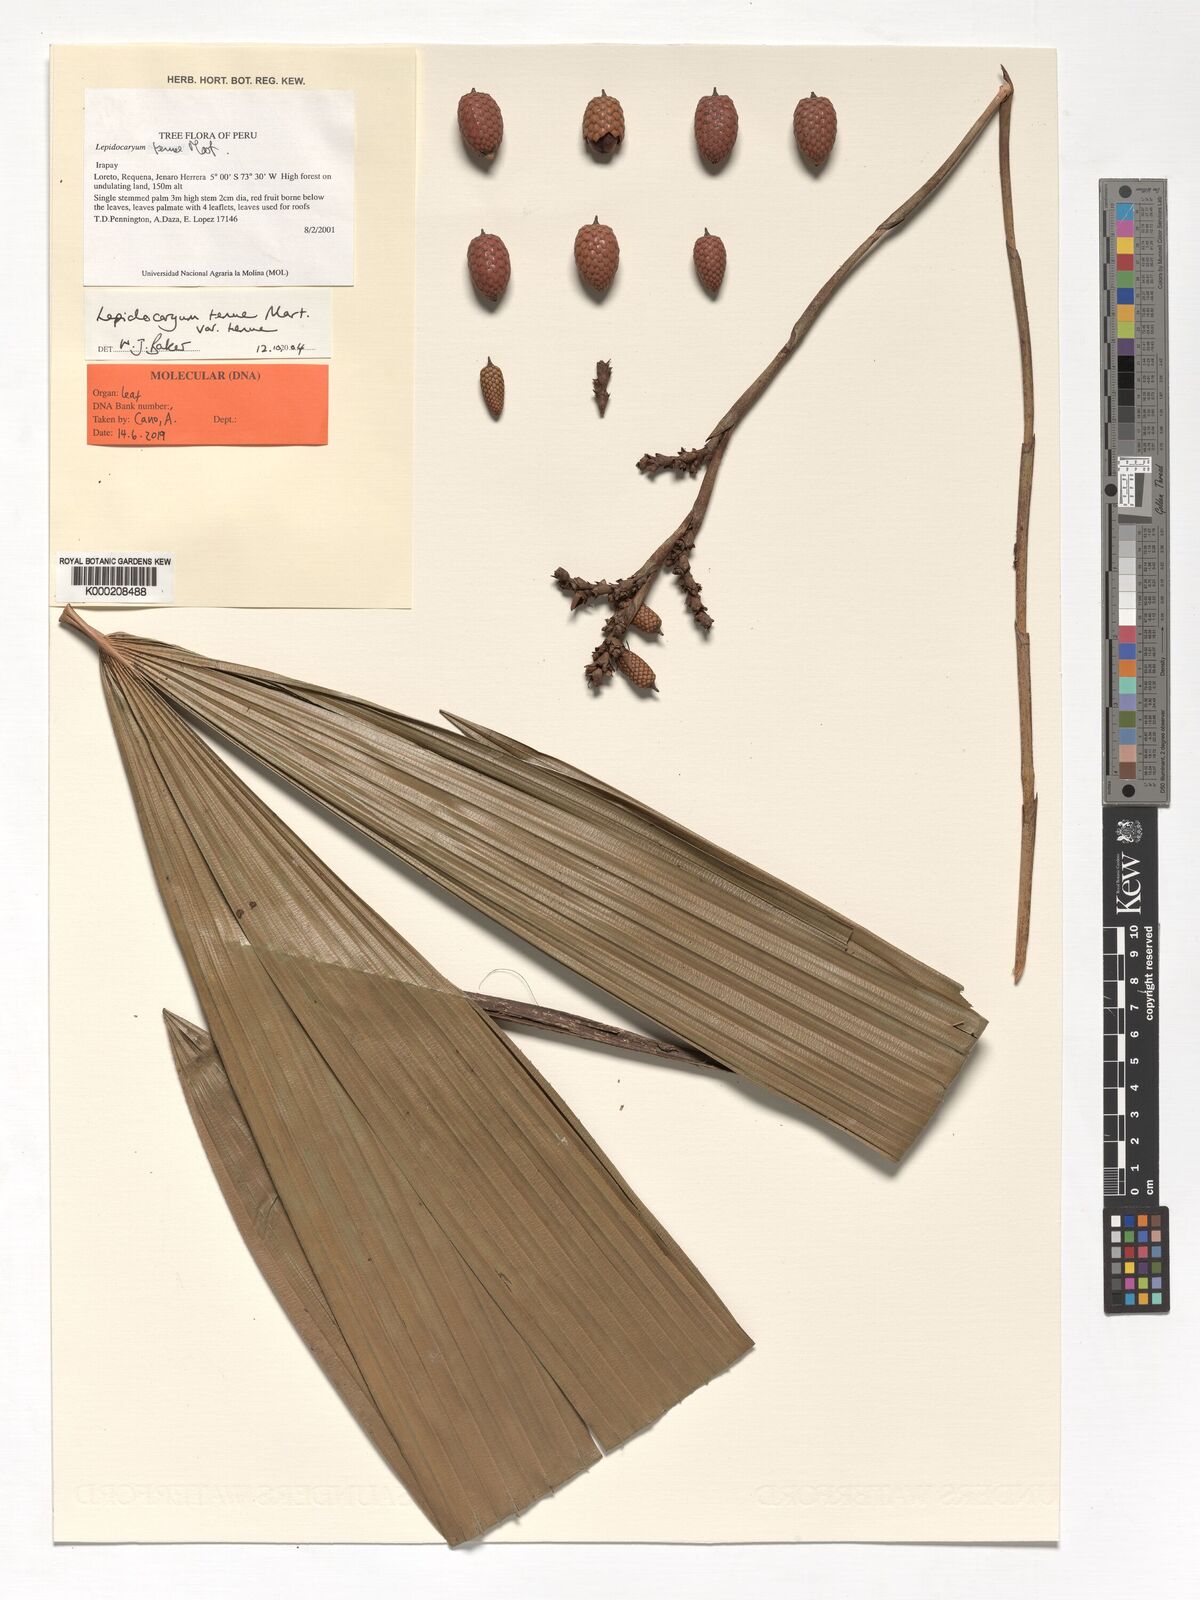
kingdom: Plantae
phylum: Tracheophyta
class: Liliopsida
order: Arecales
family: Arecaceae
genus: Lepidocaryum
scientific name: Lepidocaryum tenue
